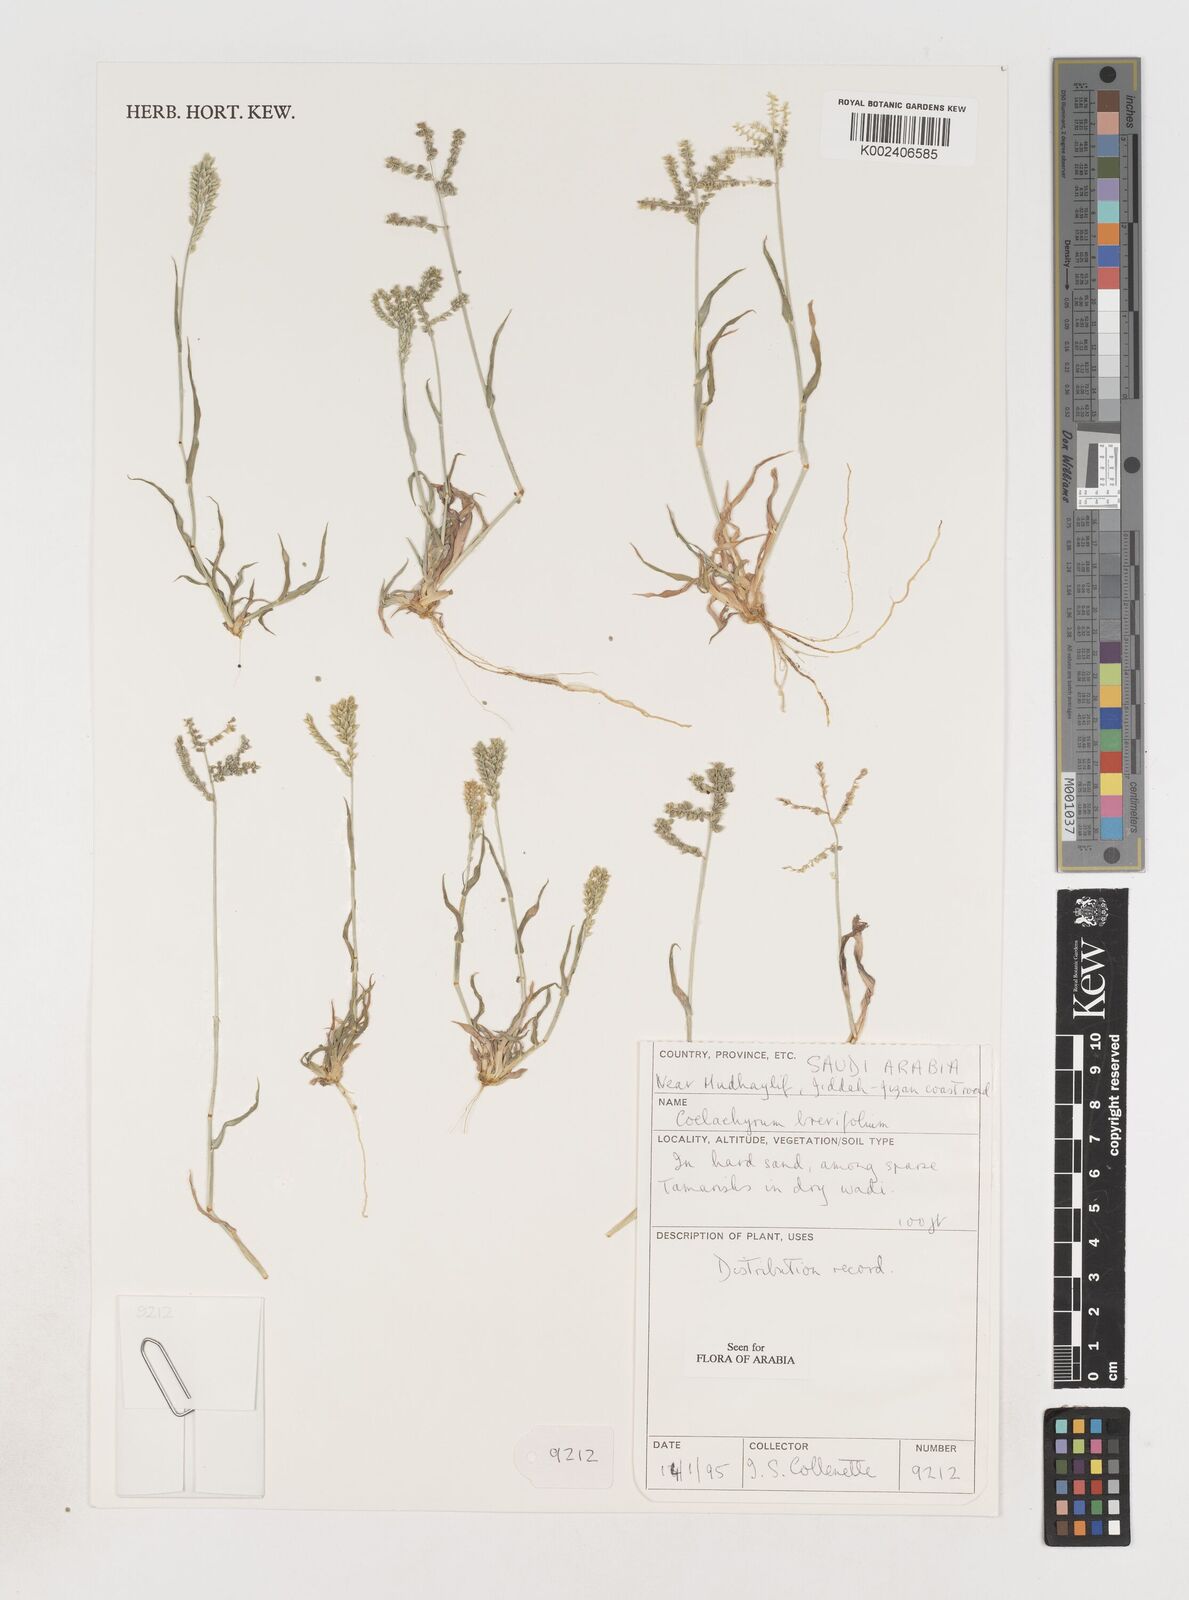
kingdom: Plantae
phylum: Tracheophyta
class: Liliopsida
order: Poales
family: Poaceae
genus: Coelachyrum
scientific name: Coelachyrum brevifolium
